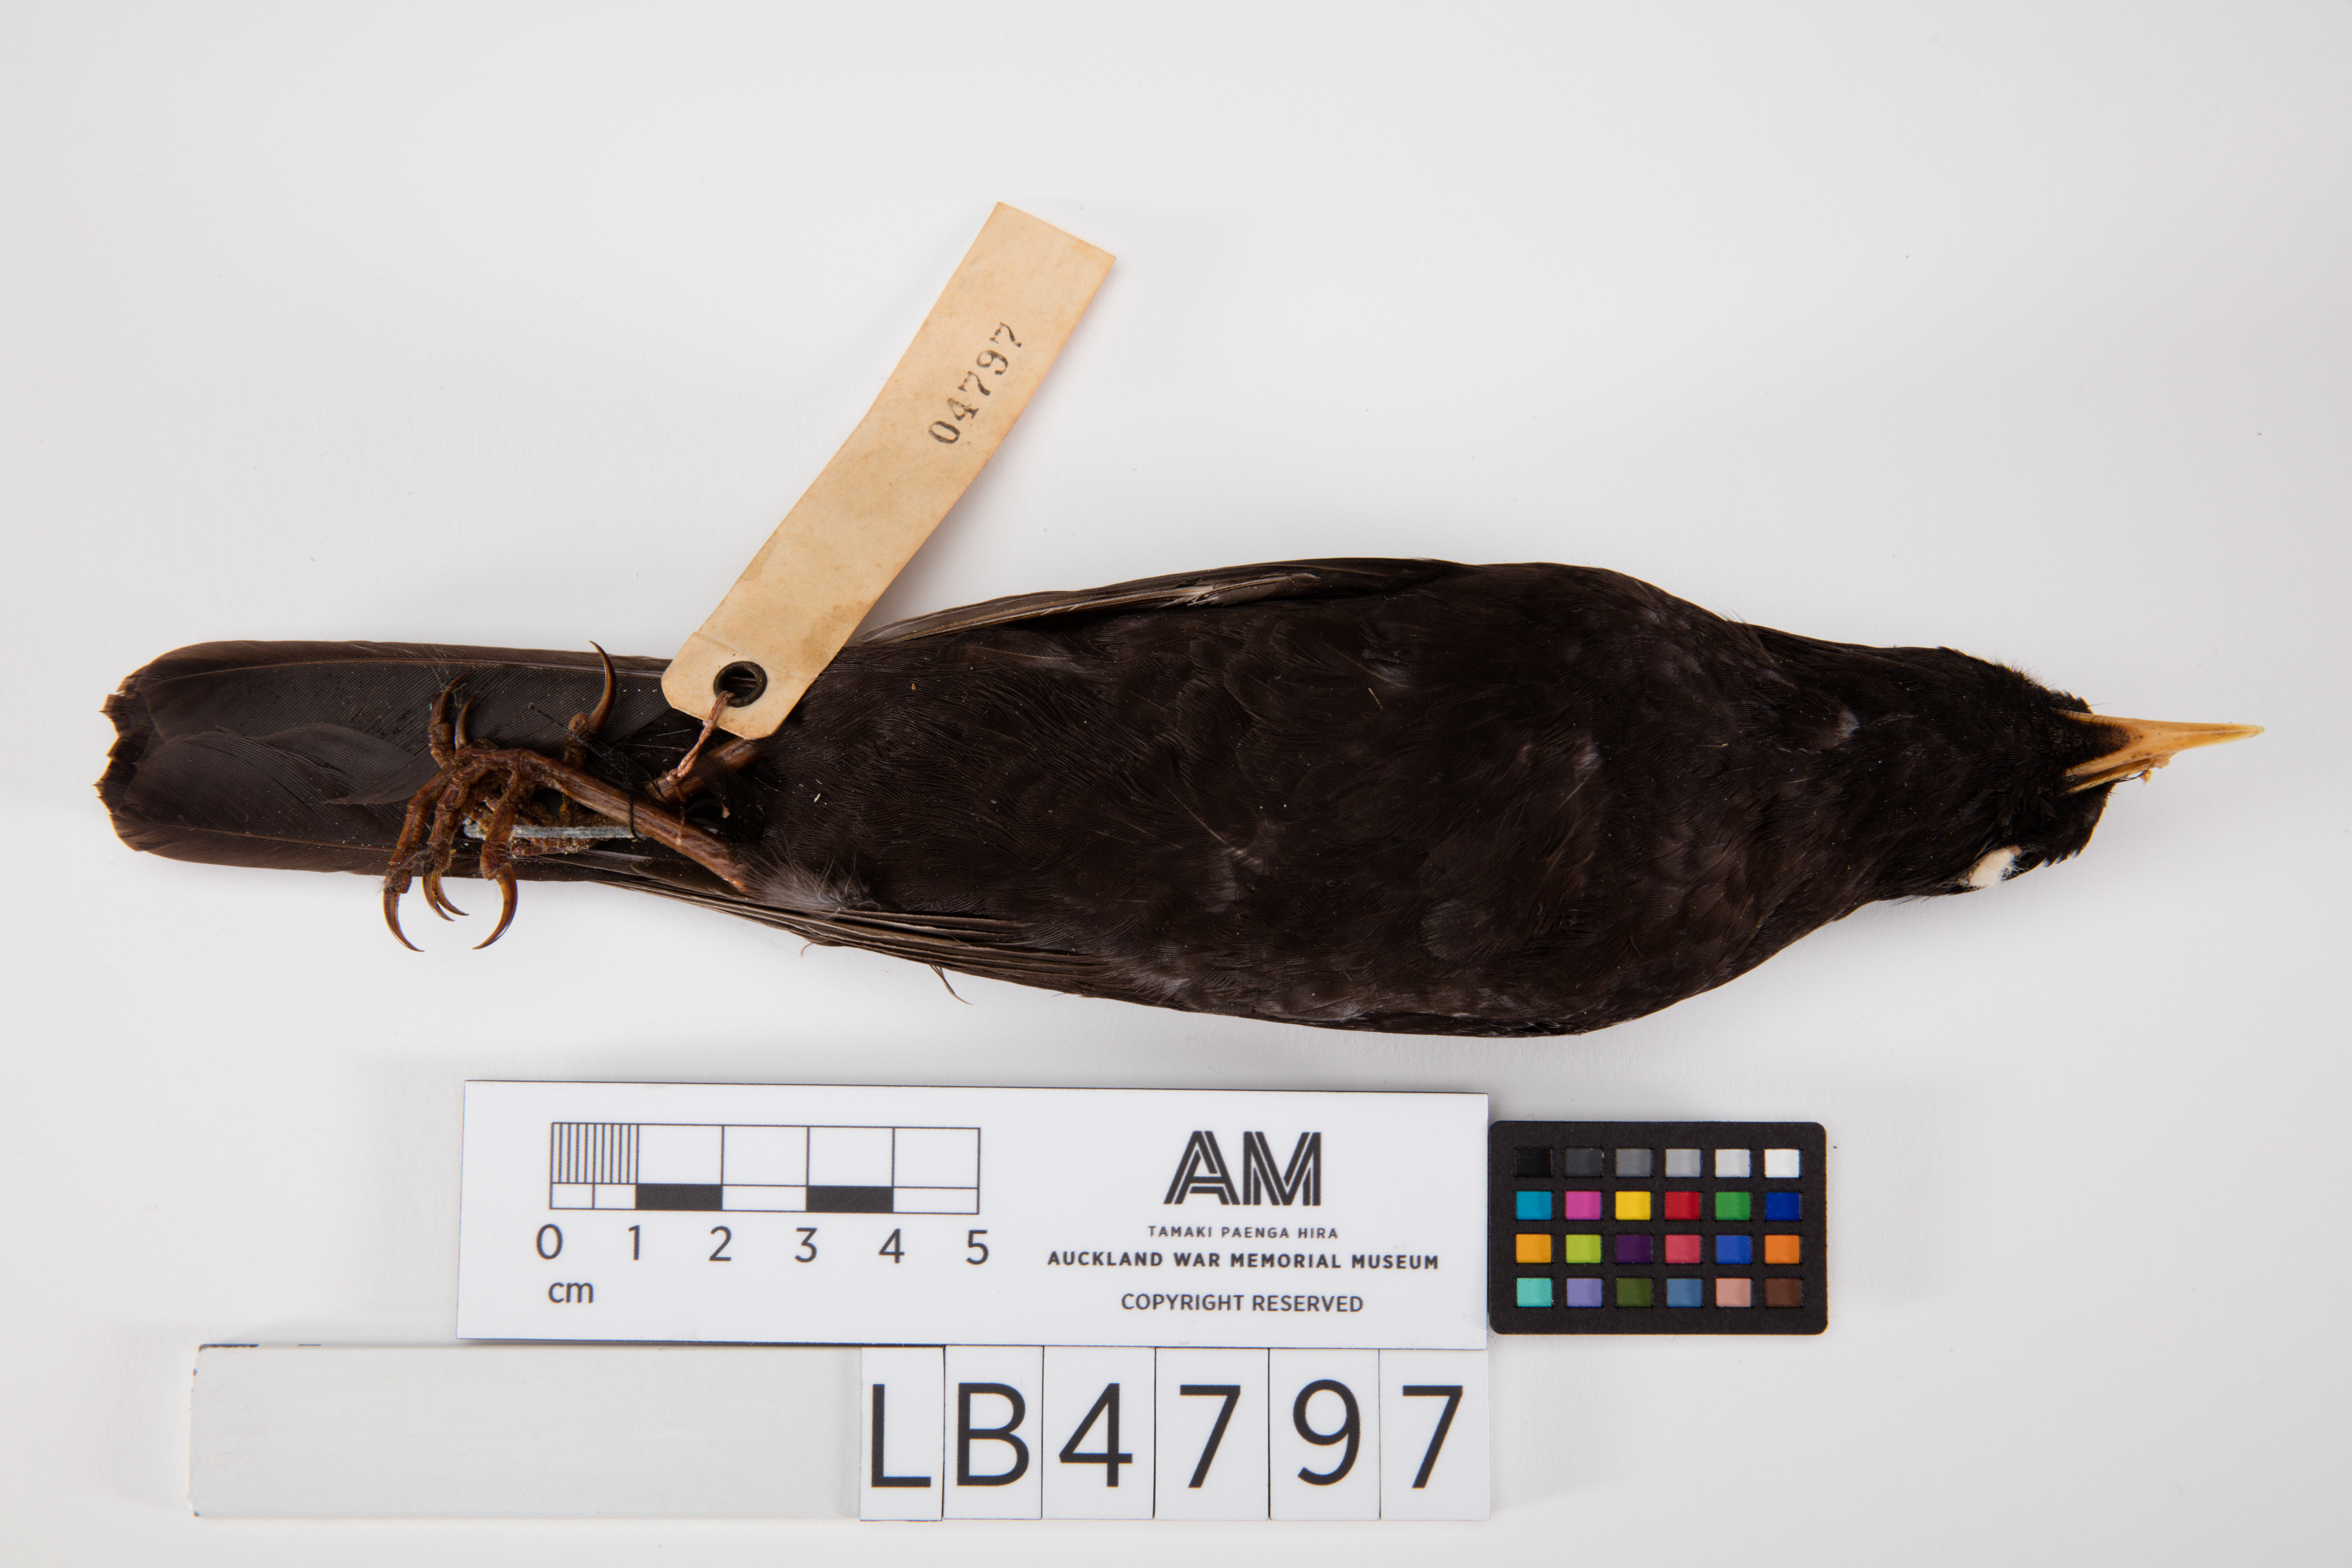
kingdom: Animalia
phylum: Chordata
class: Aves
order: Passeriformes
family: Turdidae
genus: Turdus
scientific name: Turdus merula
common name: Common blackbird
